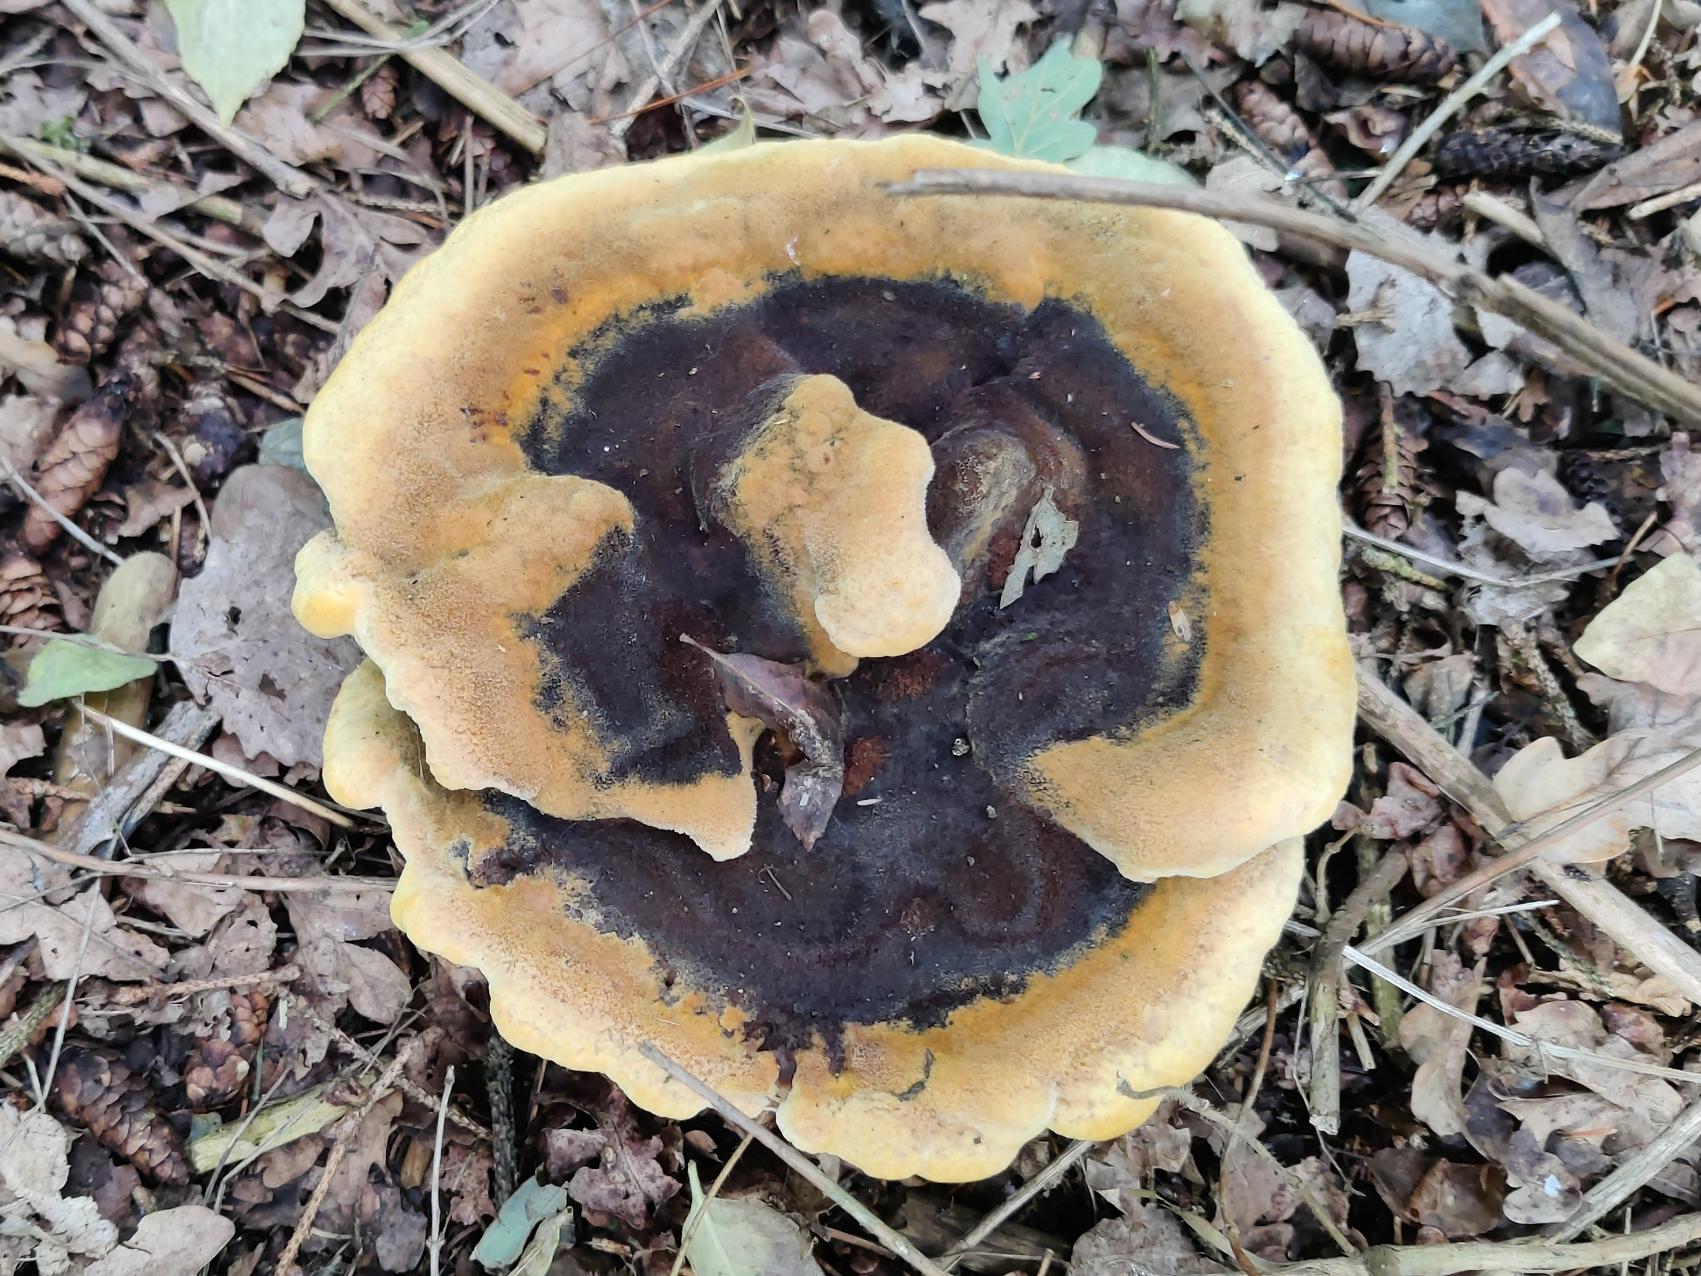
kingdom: Fungi
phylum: Basidiomycota
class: Agaricomycetes
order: Polyporales
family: Laetiporaceae
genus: Phaeolus
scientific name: Phaeolus schweinitzii
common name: Brunporesvamp
